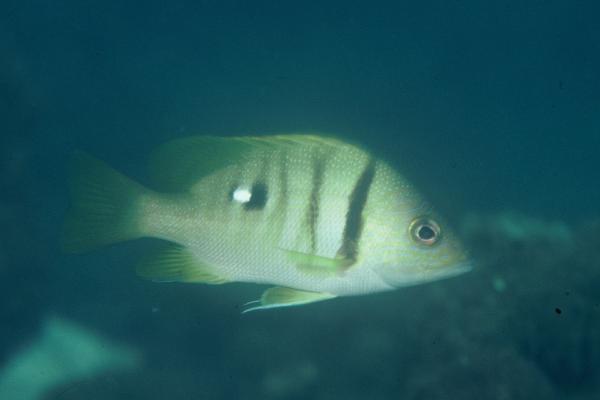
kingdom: Animalia
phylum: Chordata
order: Perciformes
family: Lutjanidae
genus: Lutjanus
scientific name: Lutjanus rivulatus
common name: Blubberlip snapper
